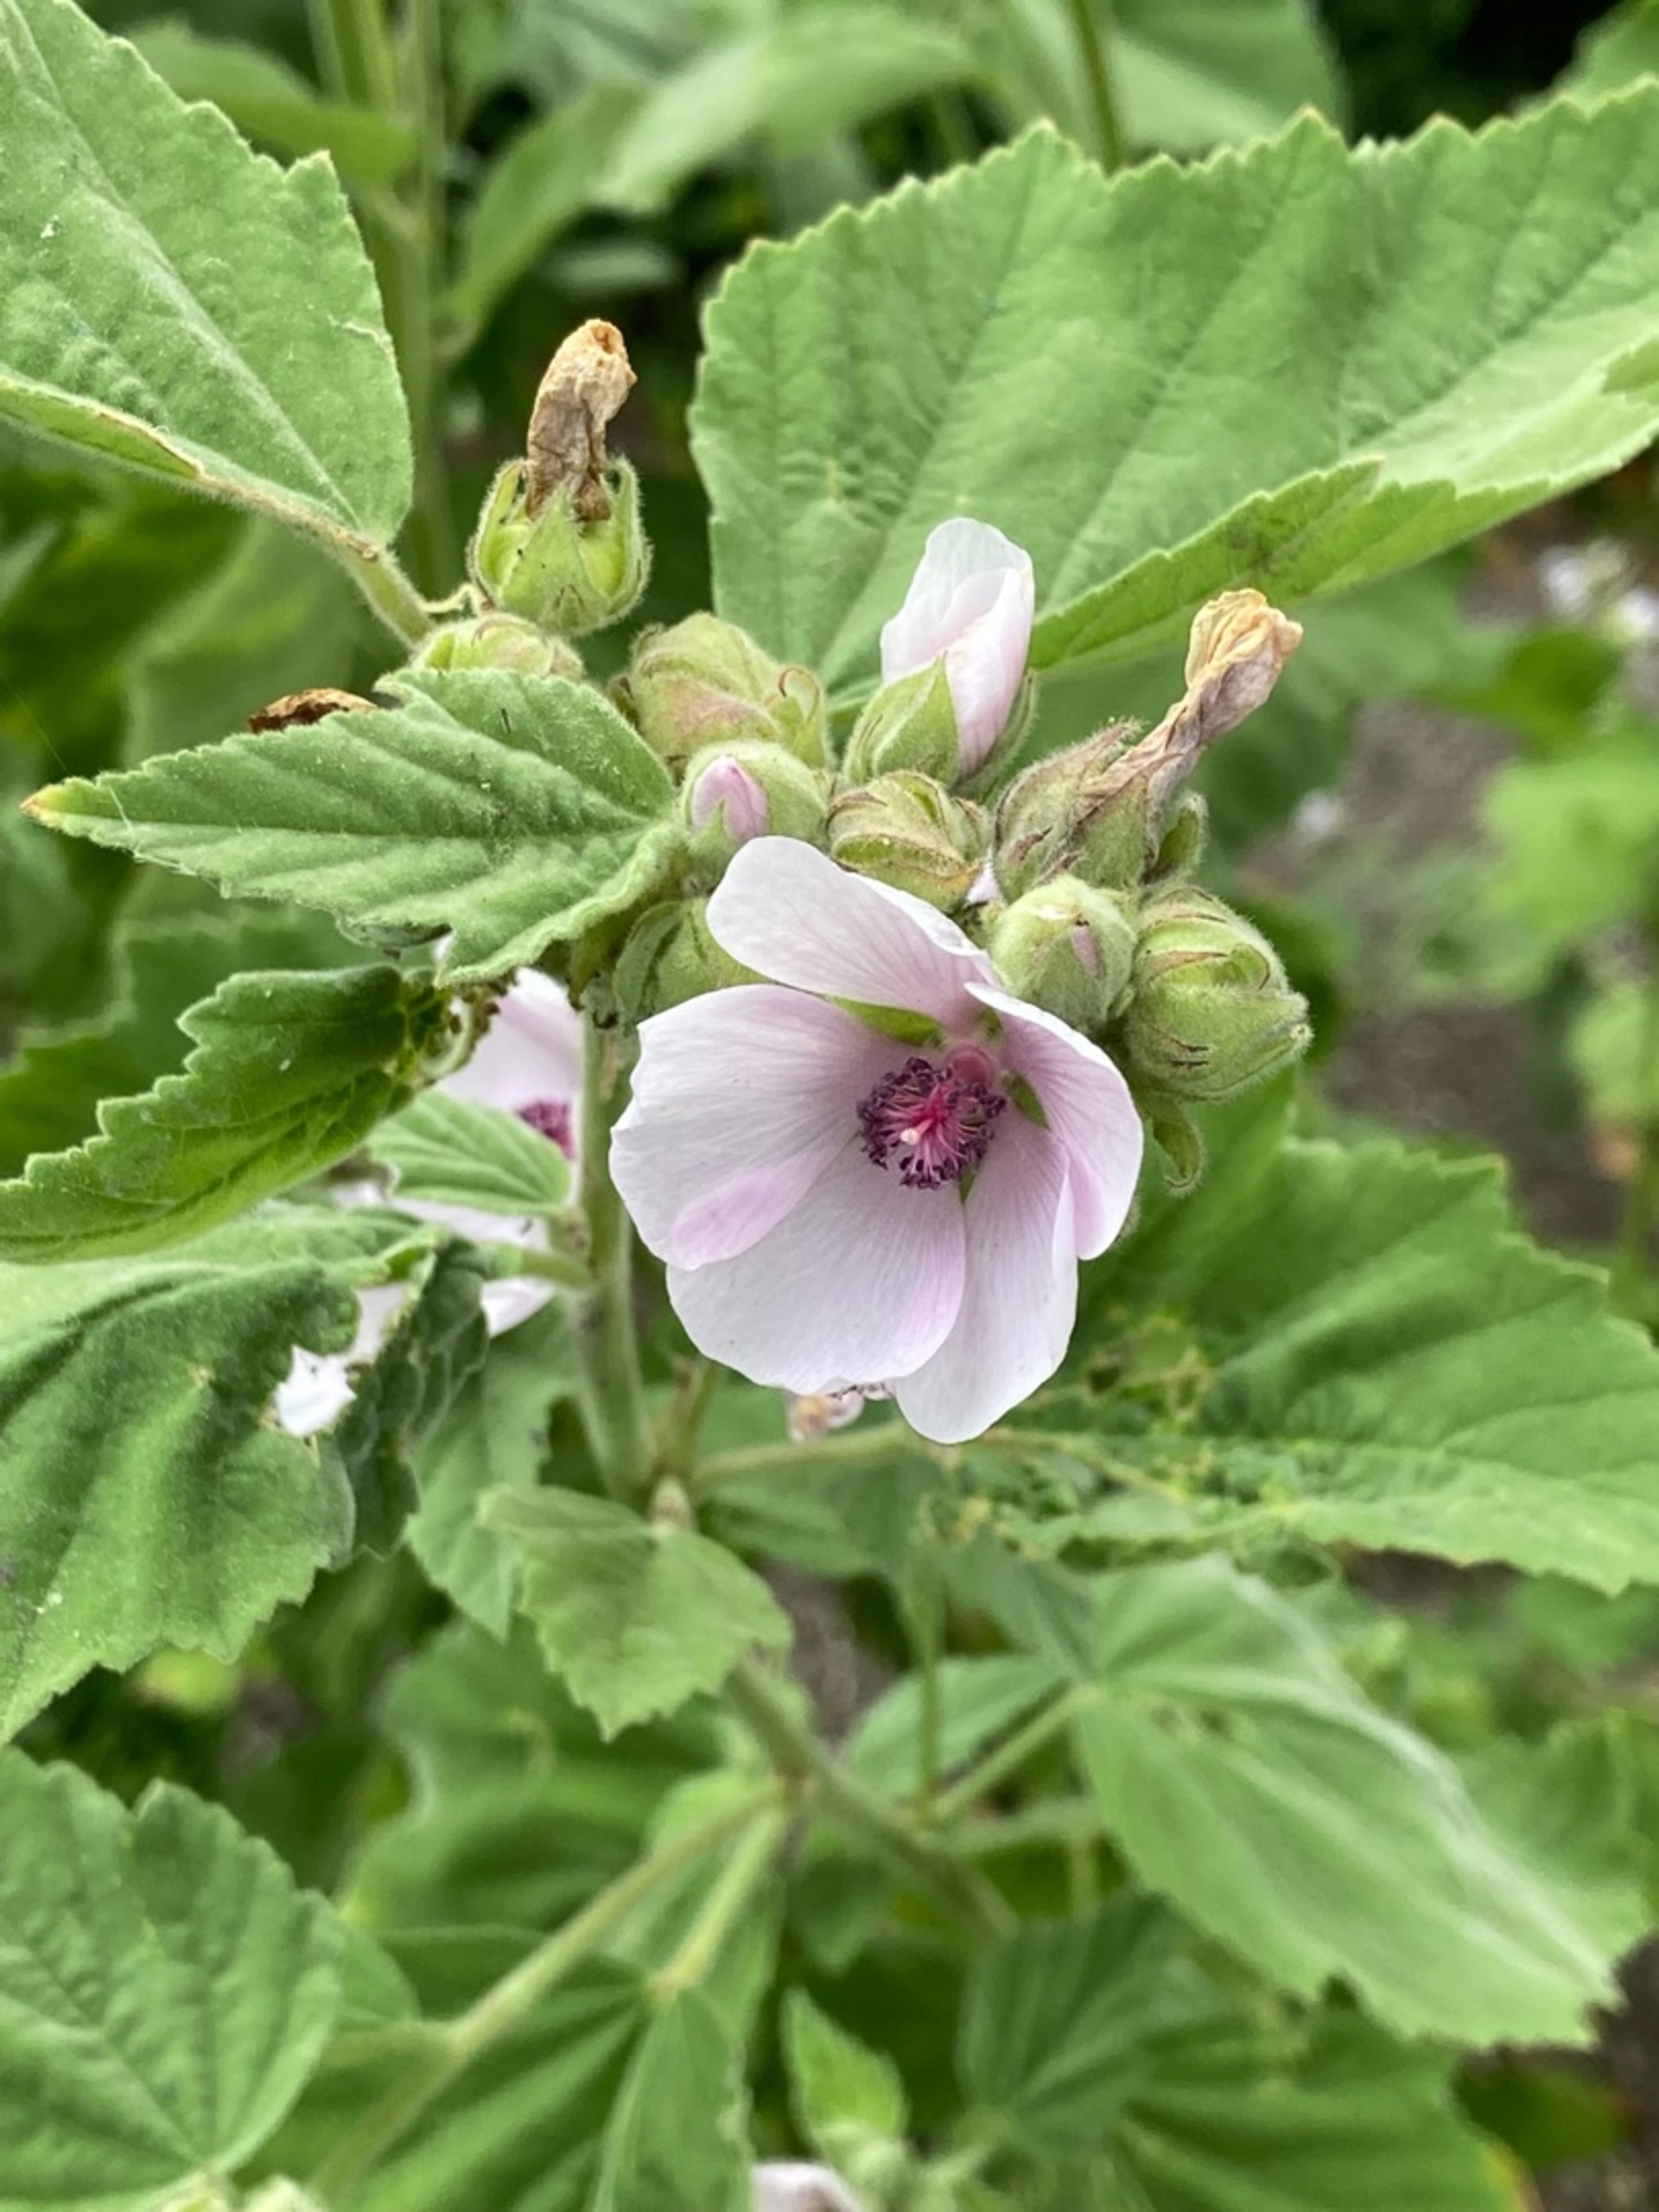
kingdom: Plantae
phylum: Tracheophyta
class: Magnoliopsida
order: Malvales
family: Malvaceae
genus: Althaea
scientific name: Althaea officinalis
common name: Lægestokrose
